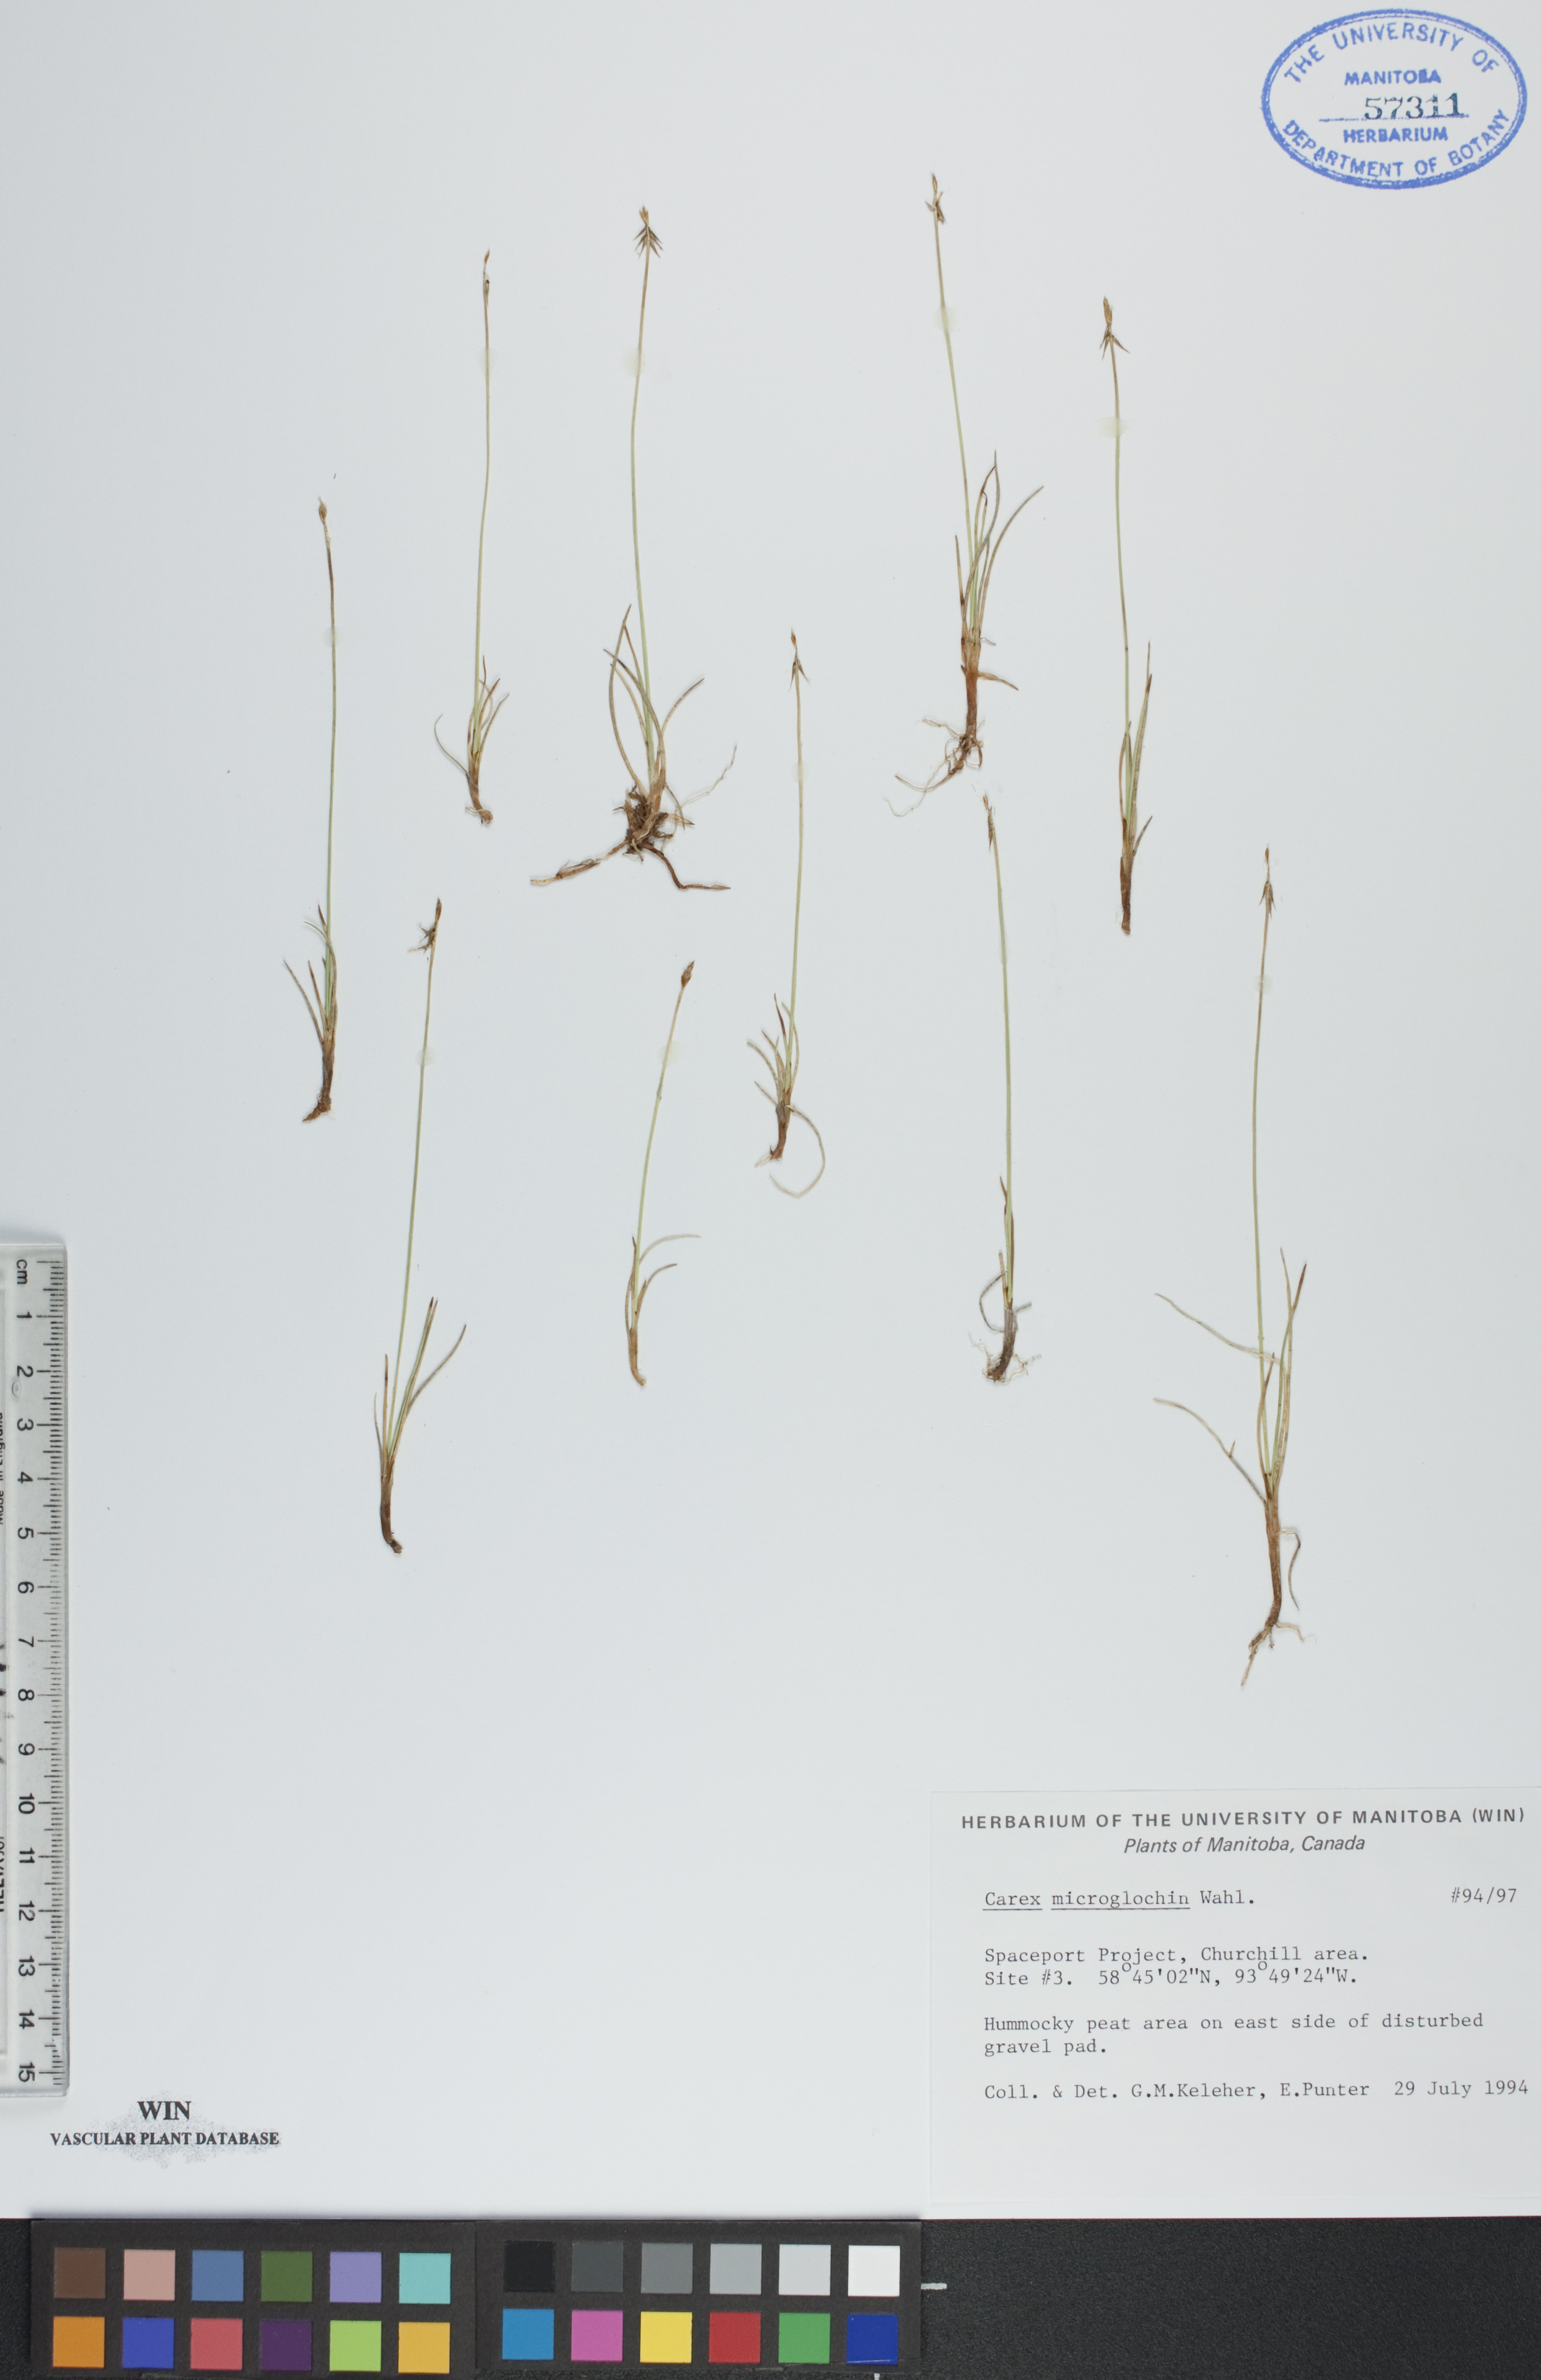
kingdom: Plantae
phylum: Tracheophyta
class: Liliopsida
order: Poales
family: Cyperaceae
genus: Carex
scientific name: Carex microglochin
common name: Bristle sedge
